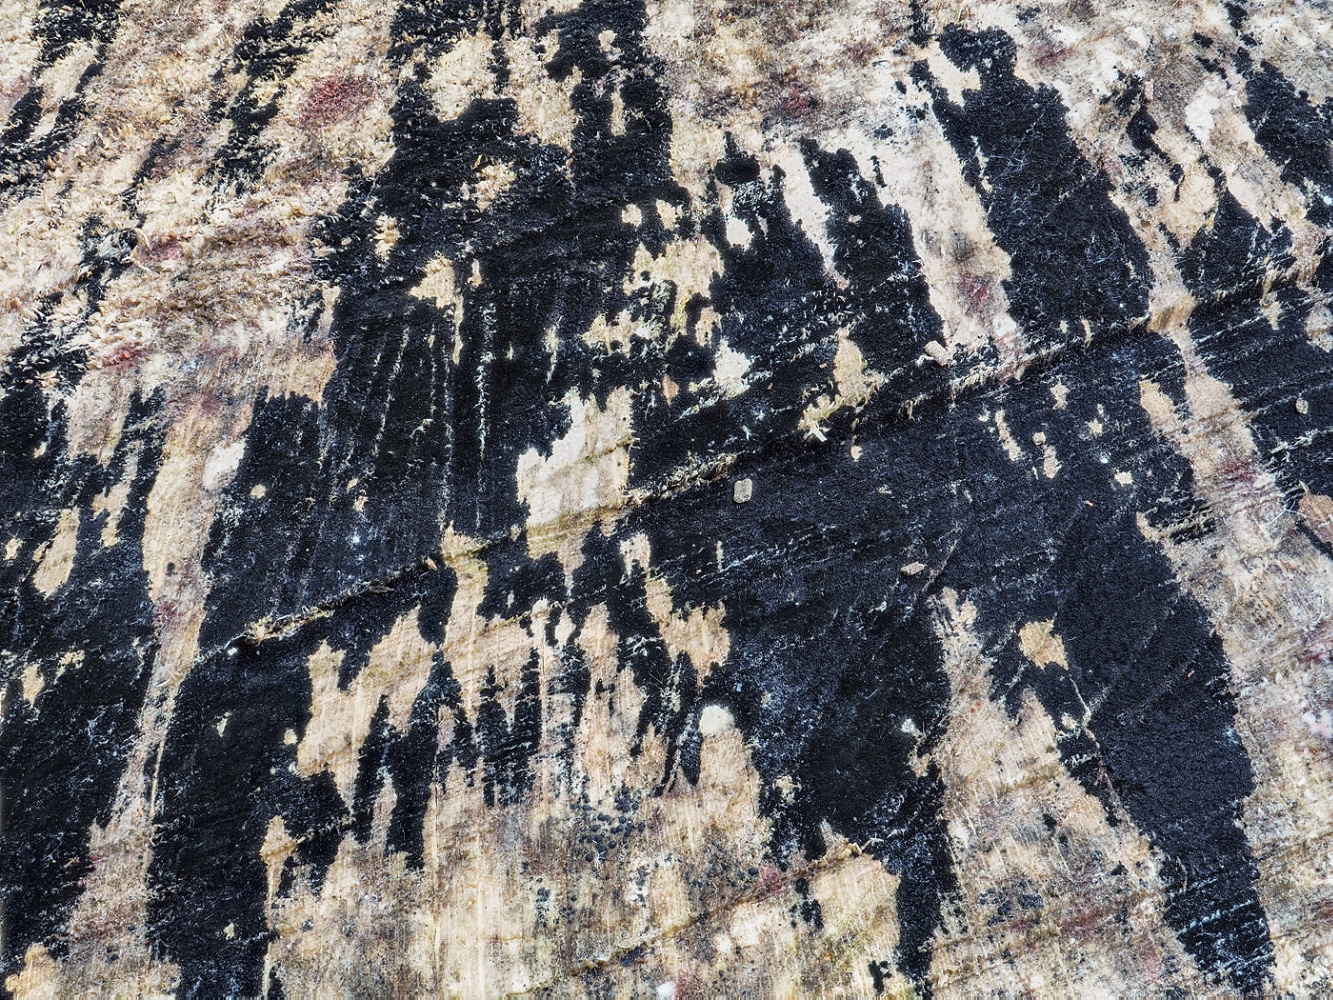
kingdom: Fungi
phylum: Ascomycota
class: Leotiomycetes
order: Helotiales
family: Helotiaceae
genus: Bispora
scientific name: Bispora pallescens
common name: måtte-snitskive
